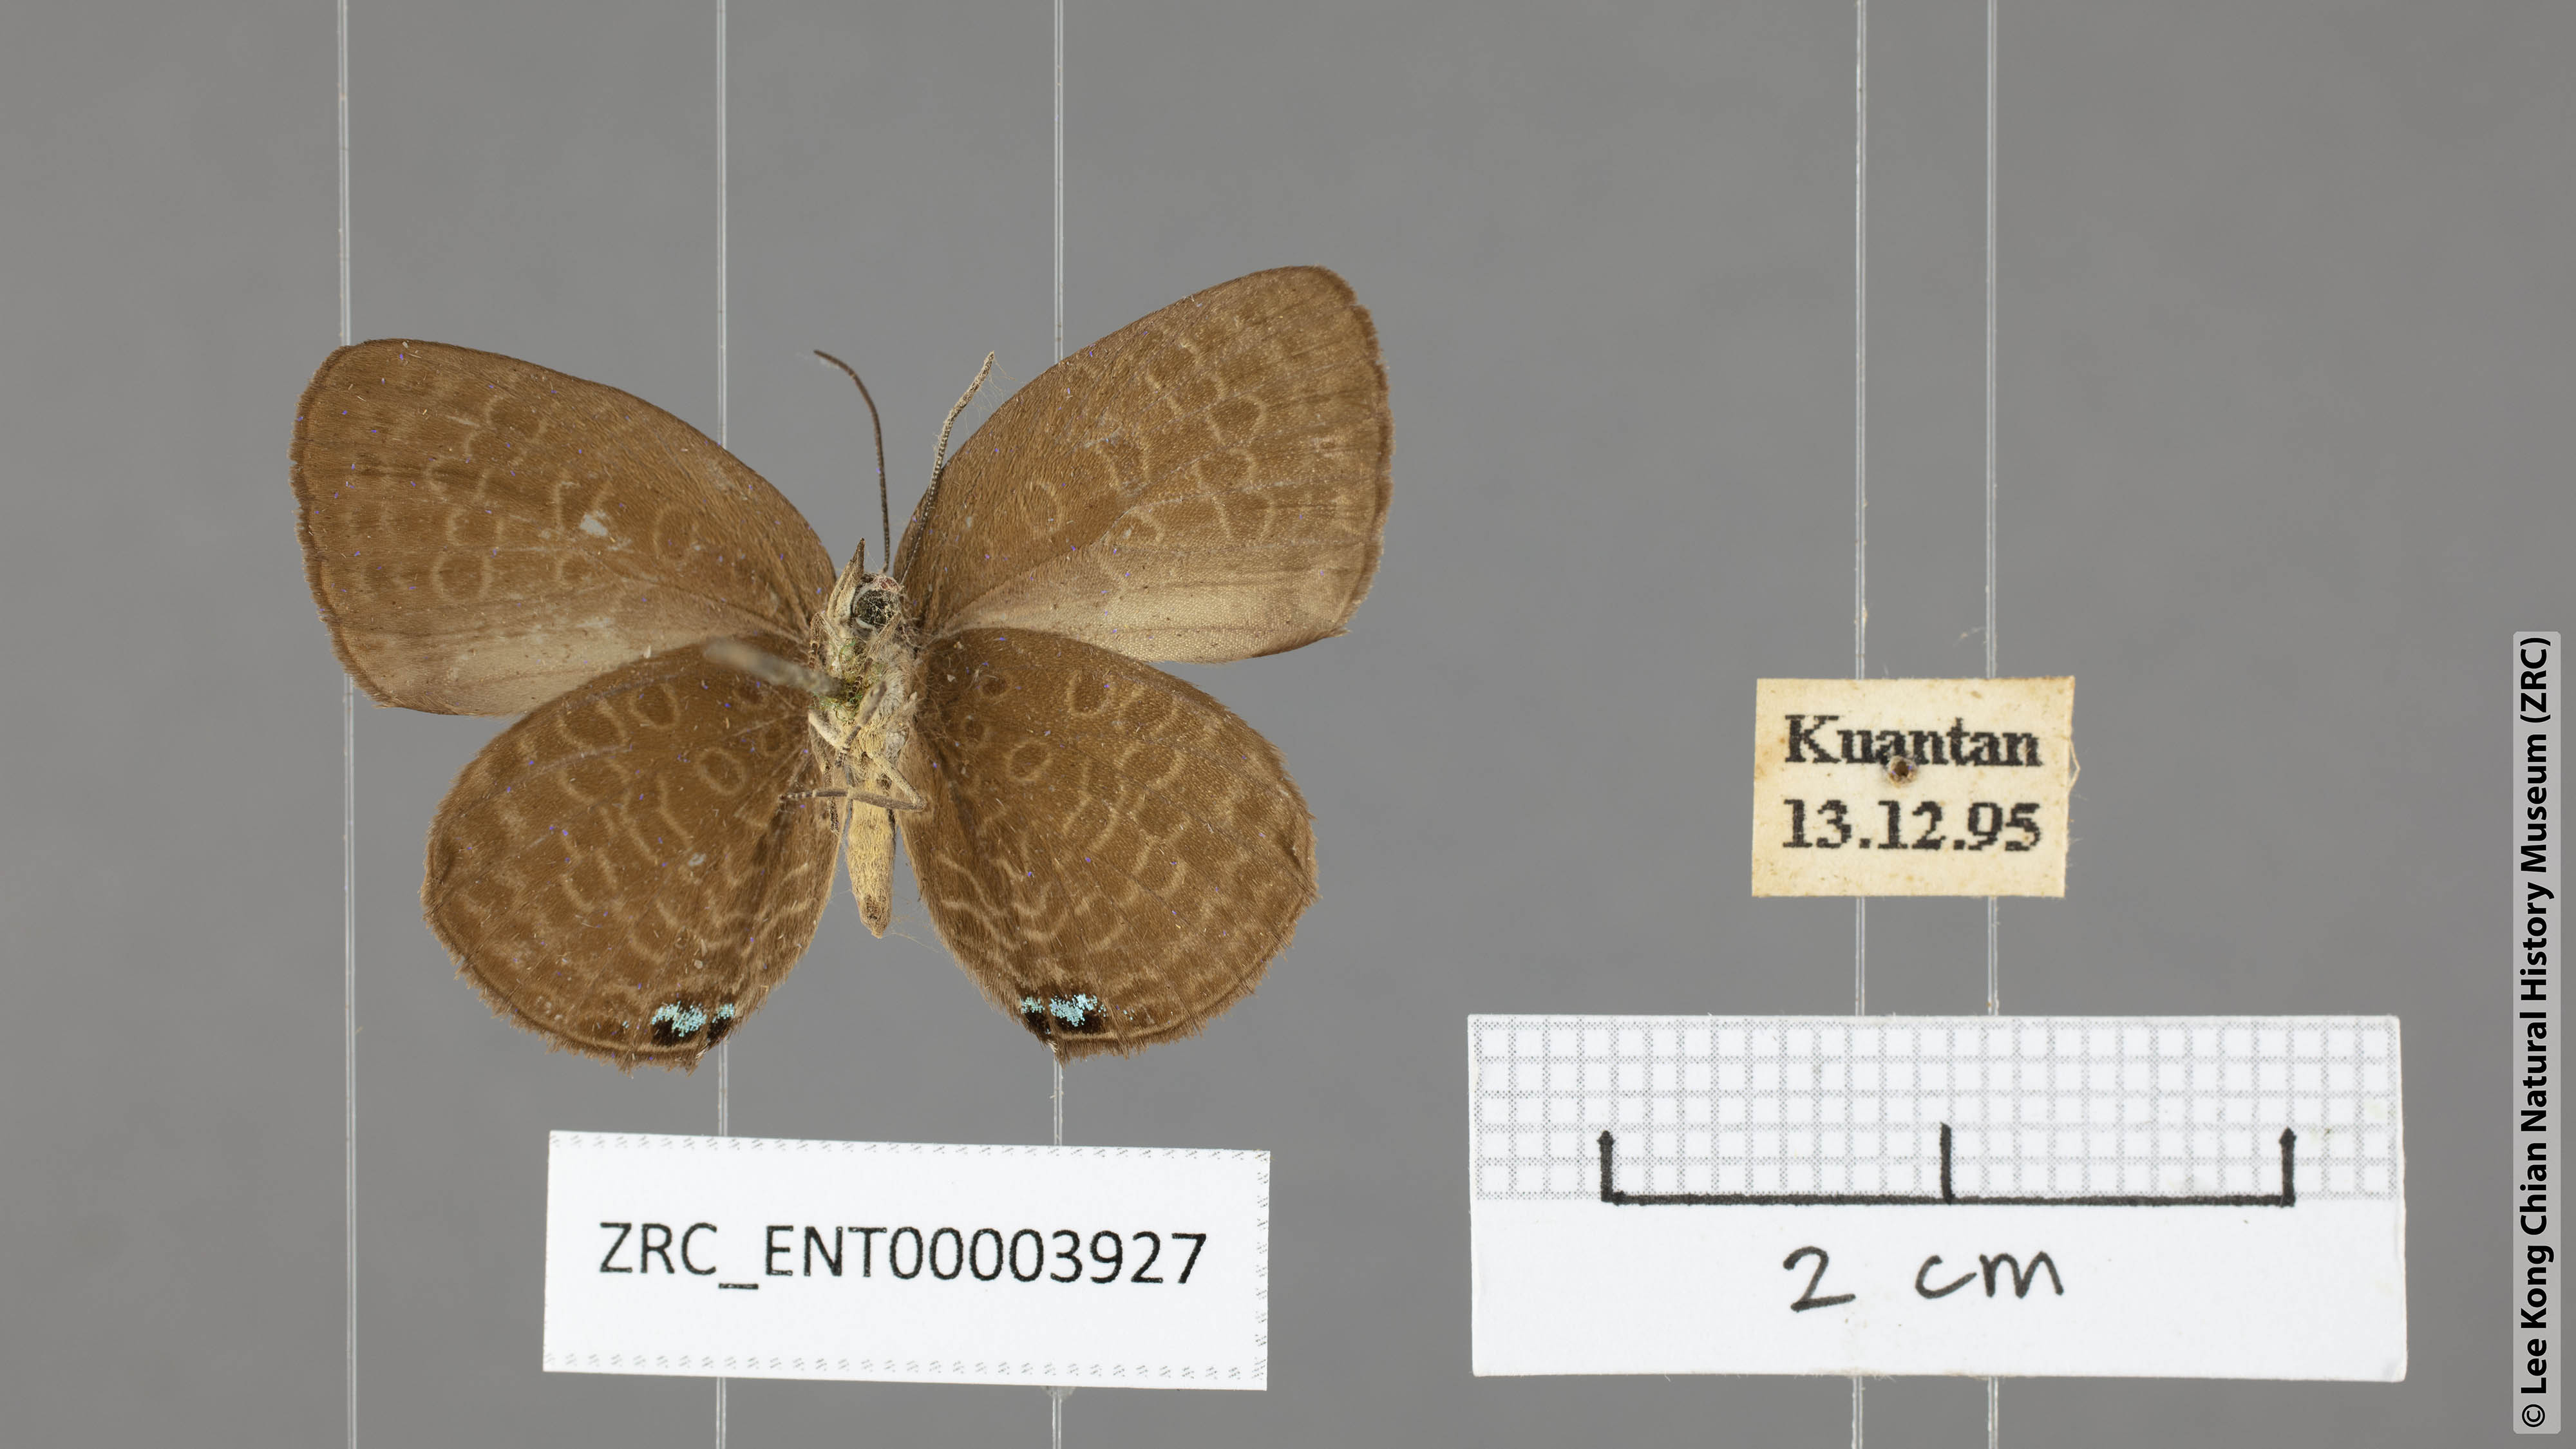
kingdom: Animalia
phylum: Arthropoda
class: Insecta
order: Lepidoptera
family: Lycaenidae
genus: Arhopala
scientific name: Arhopala epimuta
